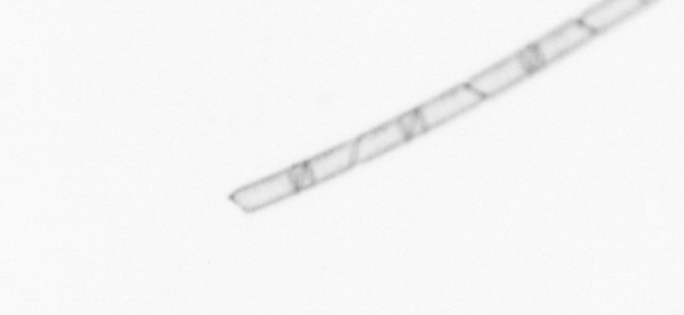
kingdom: Chromista
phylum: Ochrophyta
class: Bacillariophyceae
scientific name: Bacillariophyceae
